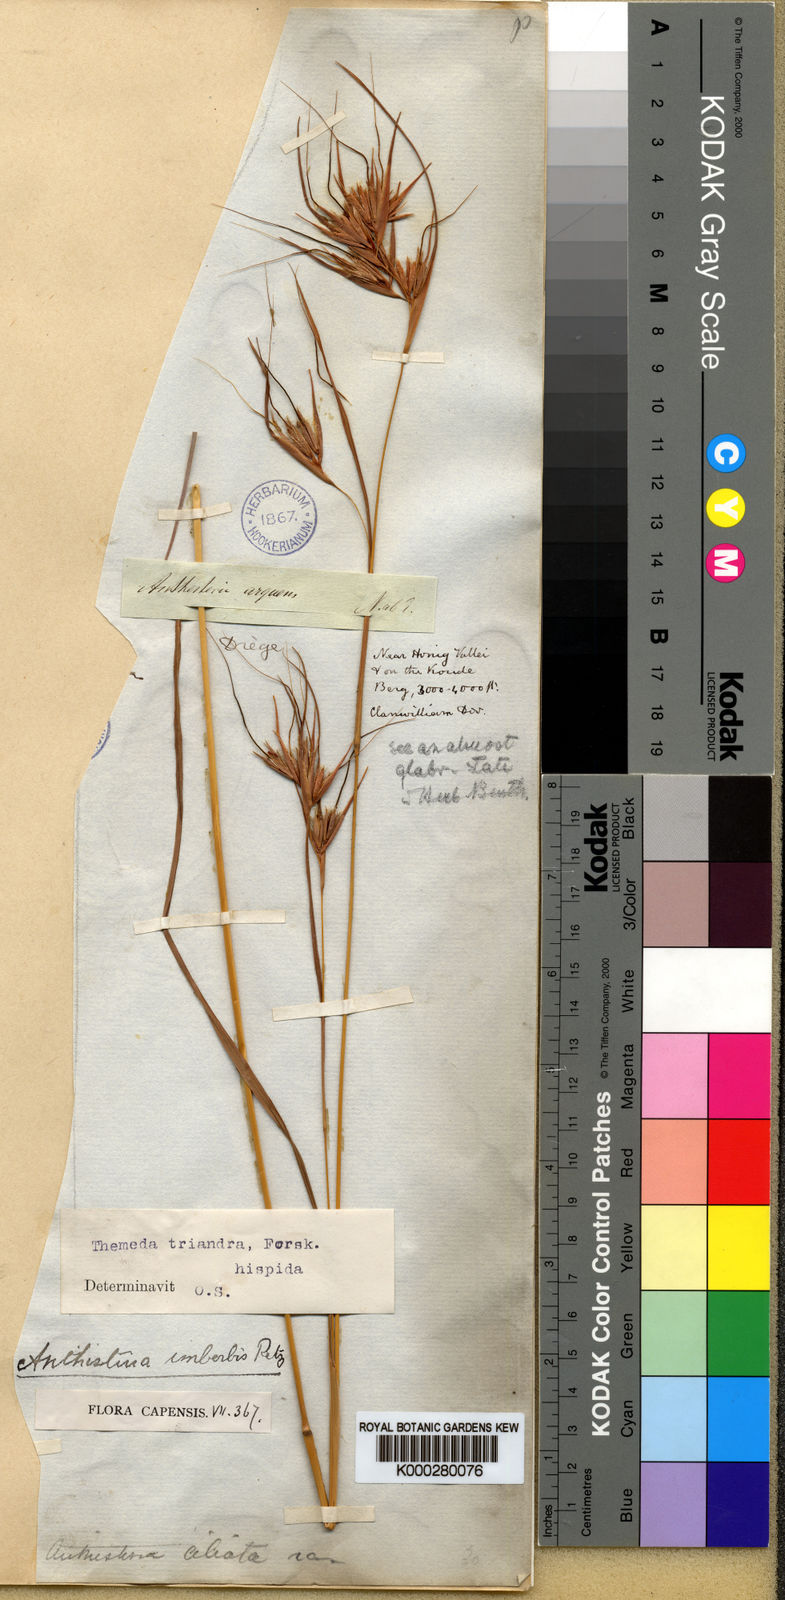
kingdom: Plantae
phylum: Tracheophyta
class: Liliopsida
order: Poales
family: Poaceae
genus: Themeda
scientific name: Themeda triandra
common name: Kangaroo grass
